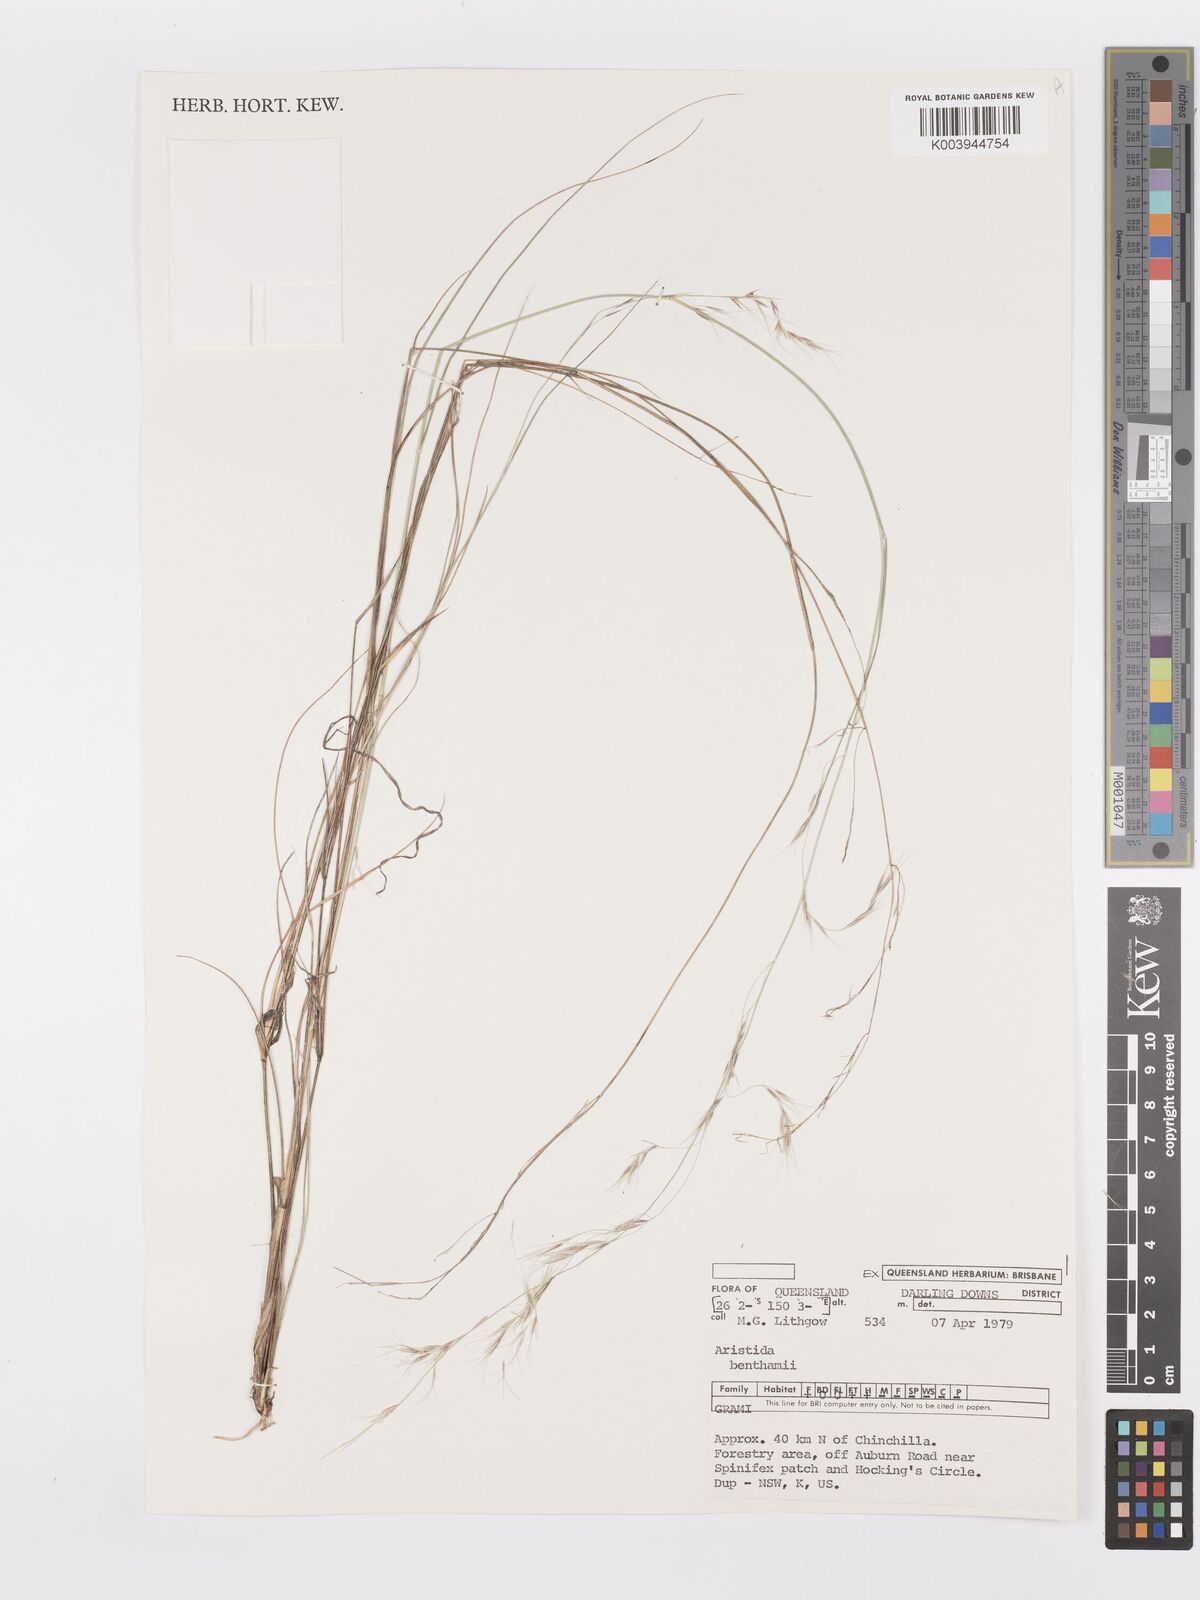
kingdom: Plantae
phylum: Tracheophyta
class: Liliopsida
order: Poales
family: Poaceae
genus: Aristida
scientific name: Aristida benthamii
